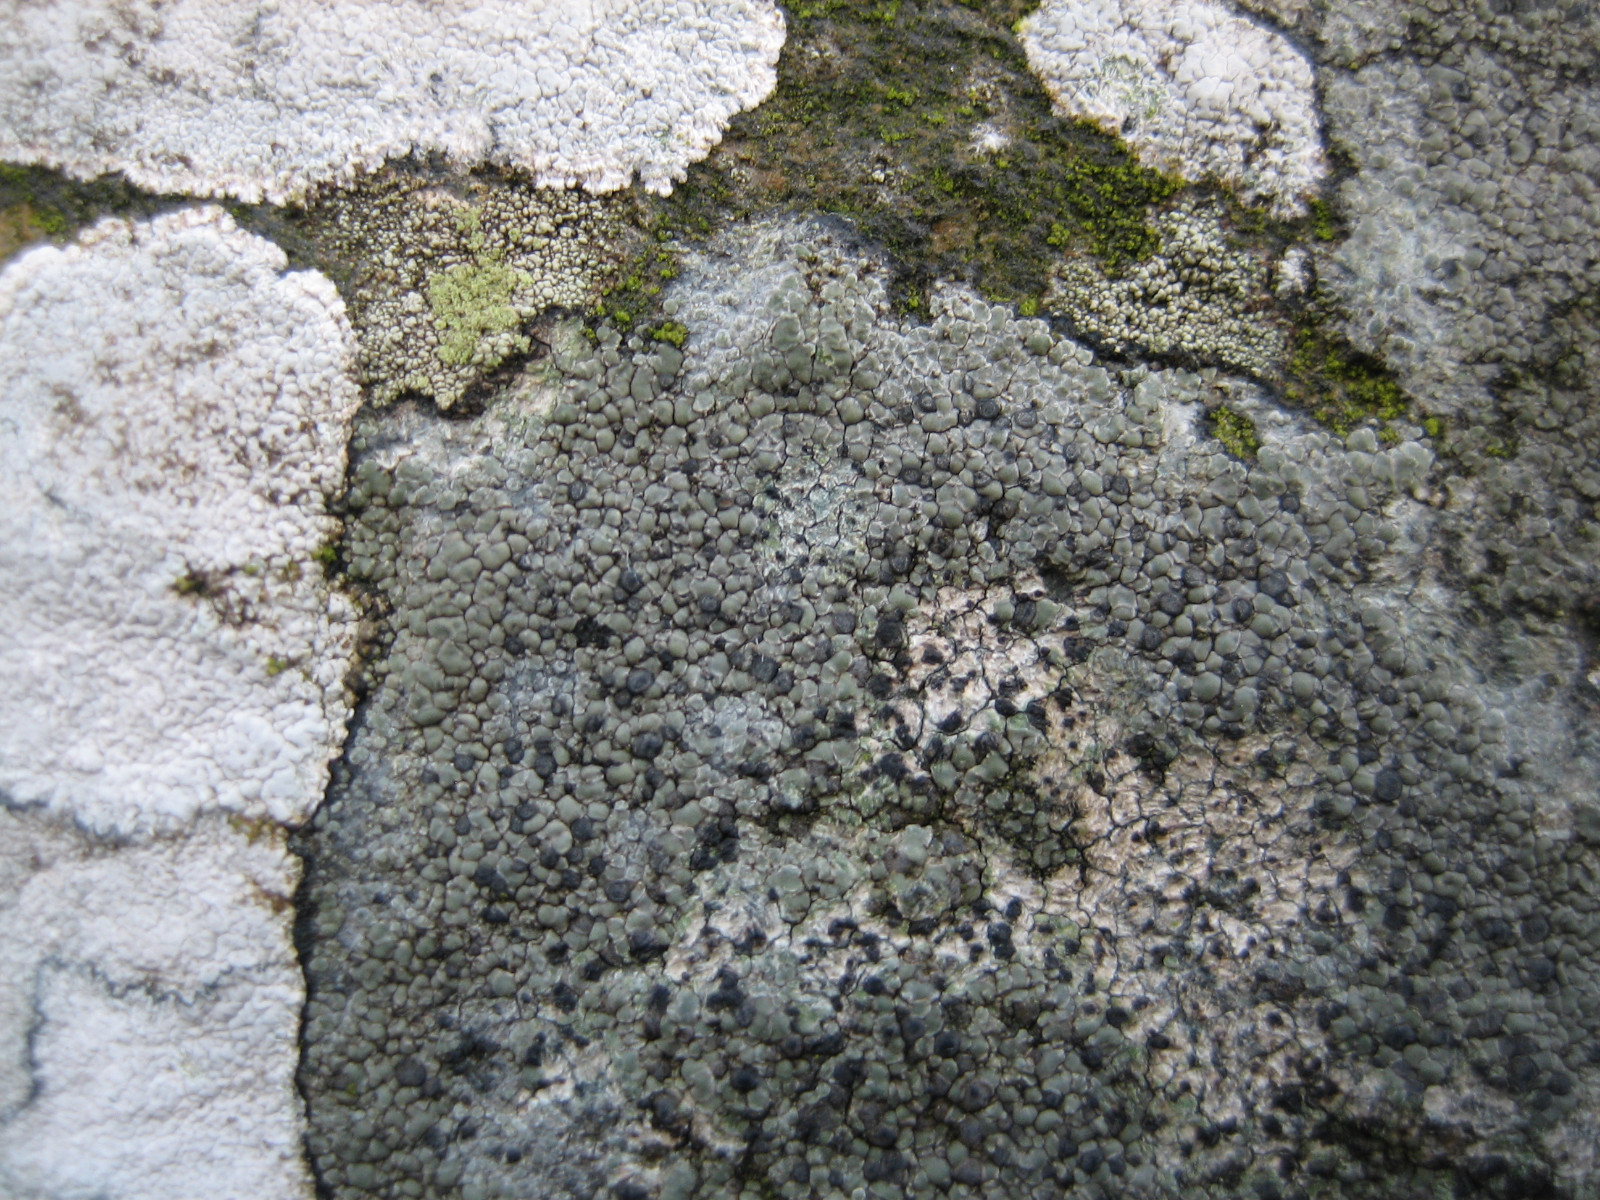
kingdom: Fungi
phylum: Ascomycota
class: Lecanoromycetes
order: Lecideales
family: Lecideaceae
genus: Lecidea
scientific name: Lecidea fuscoatra
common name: rudret skivelav
